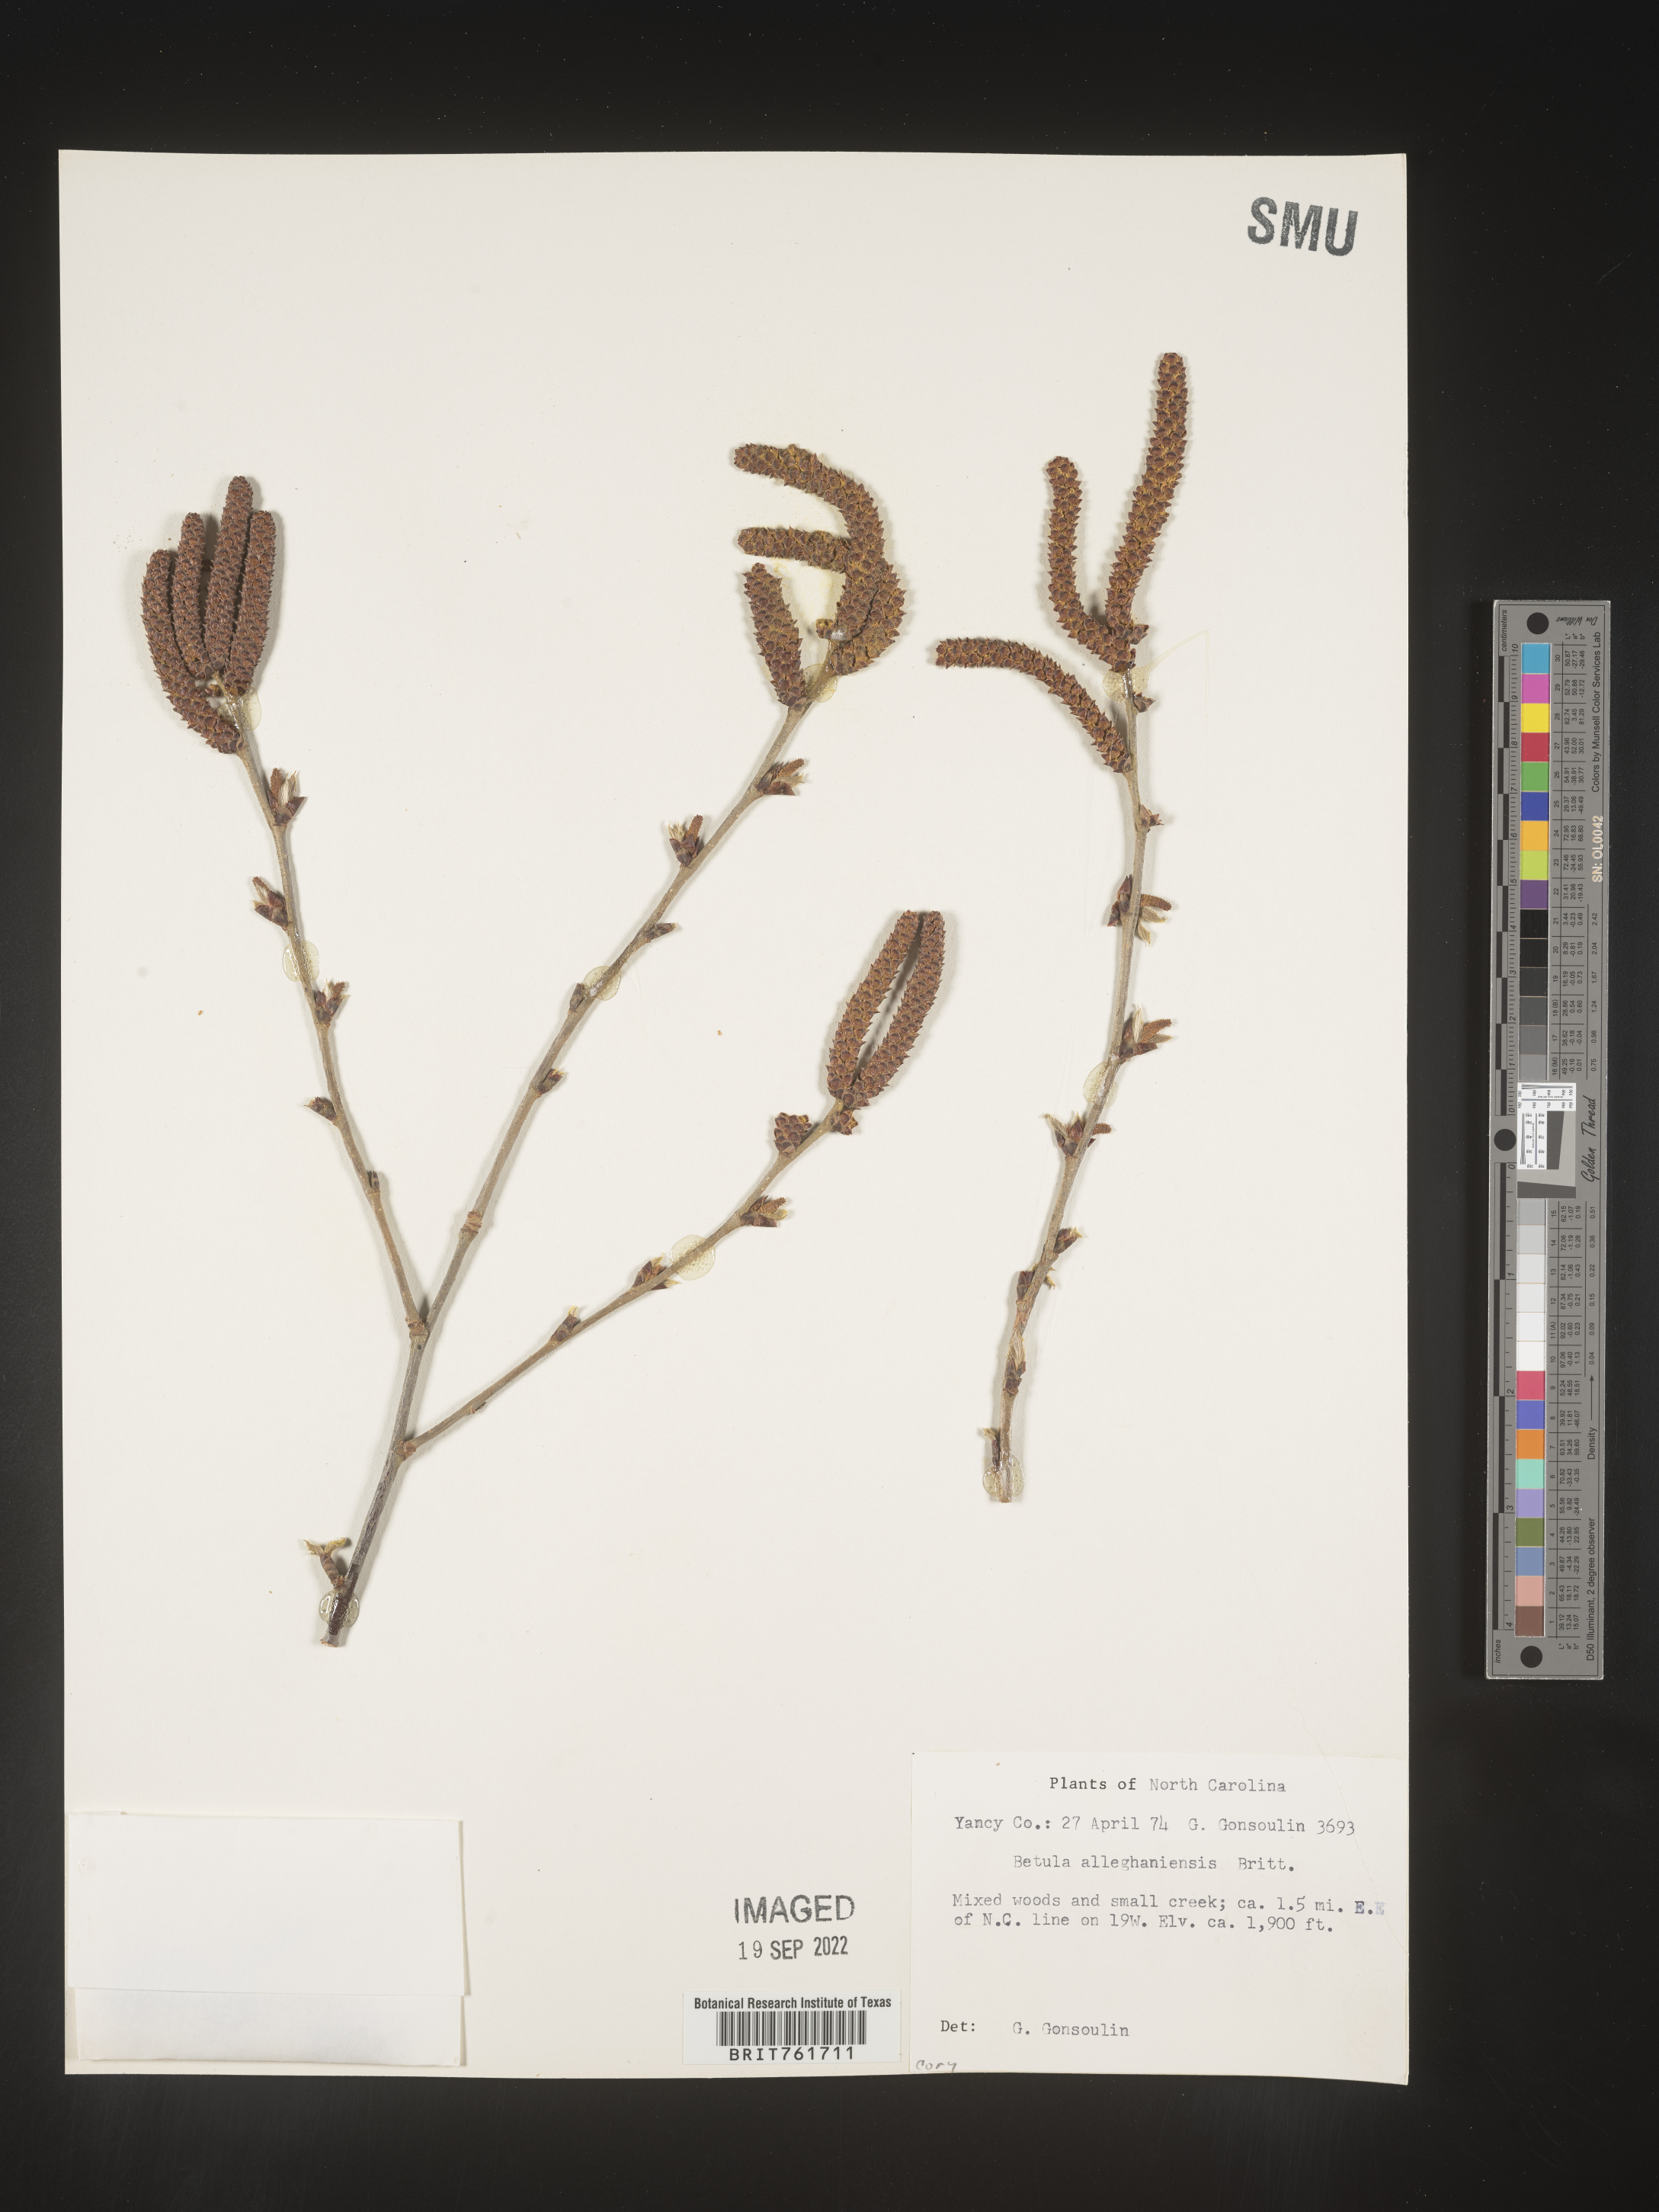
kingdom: Plantae
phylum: Tracheophyta
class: Magnoliopsida
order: Fagales
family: Betulaceae
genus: Betula
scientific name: Betula alleghaniensis
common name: Yellow birch
